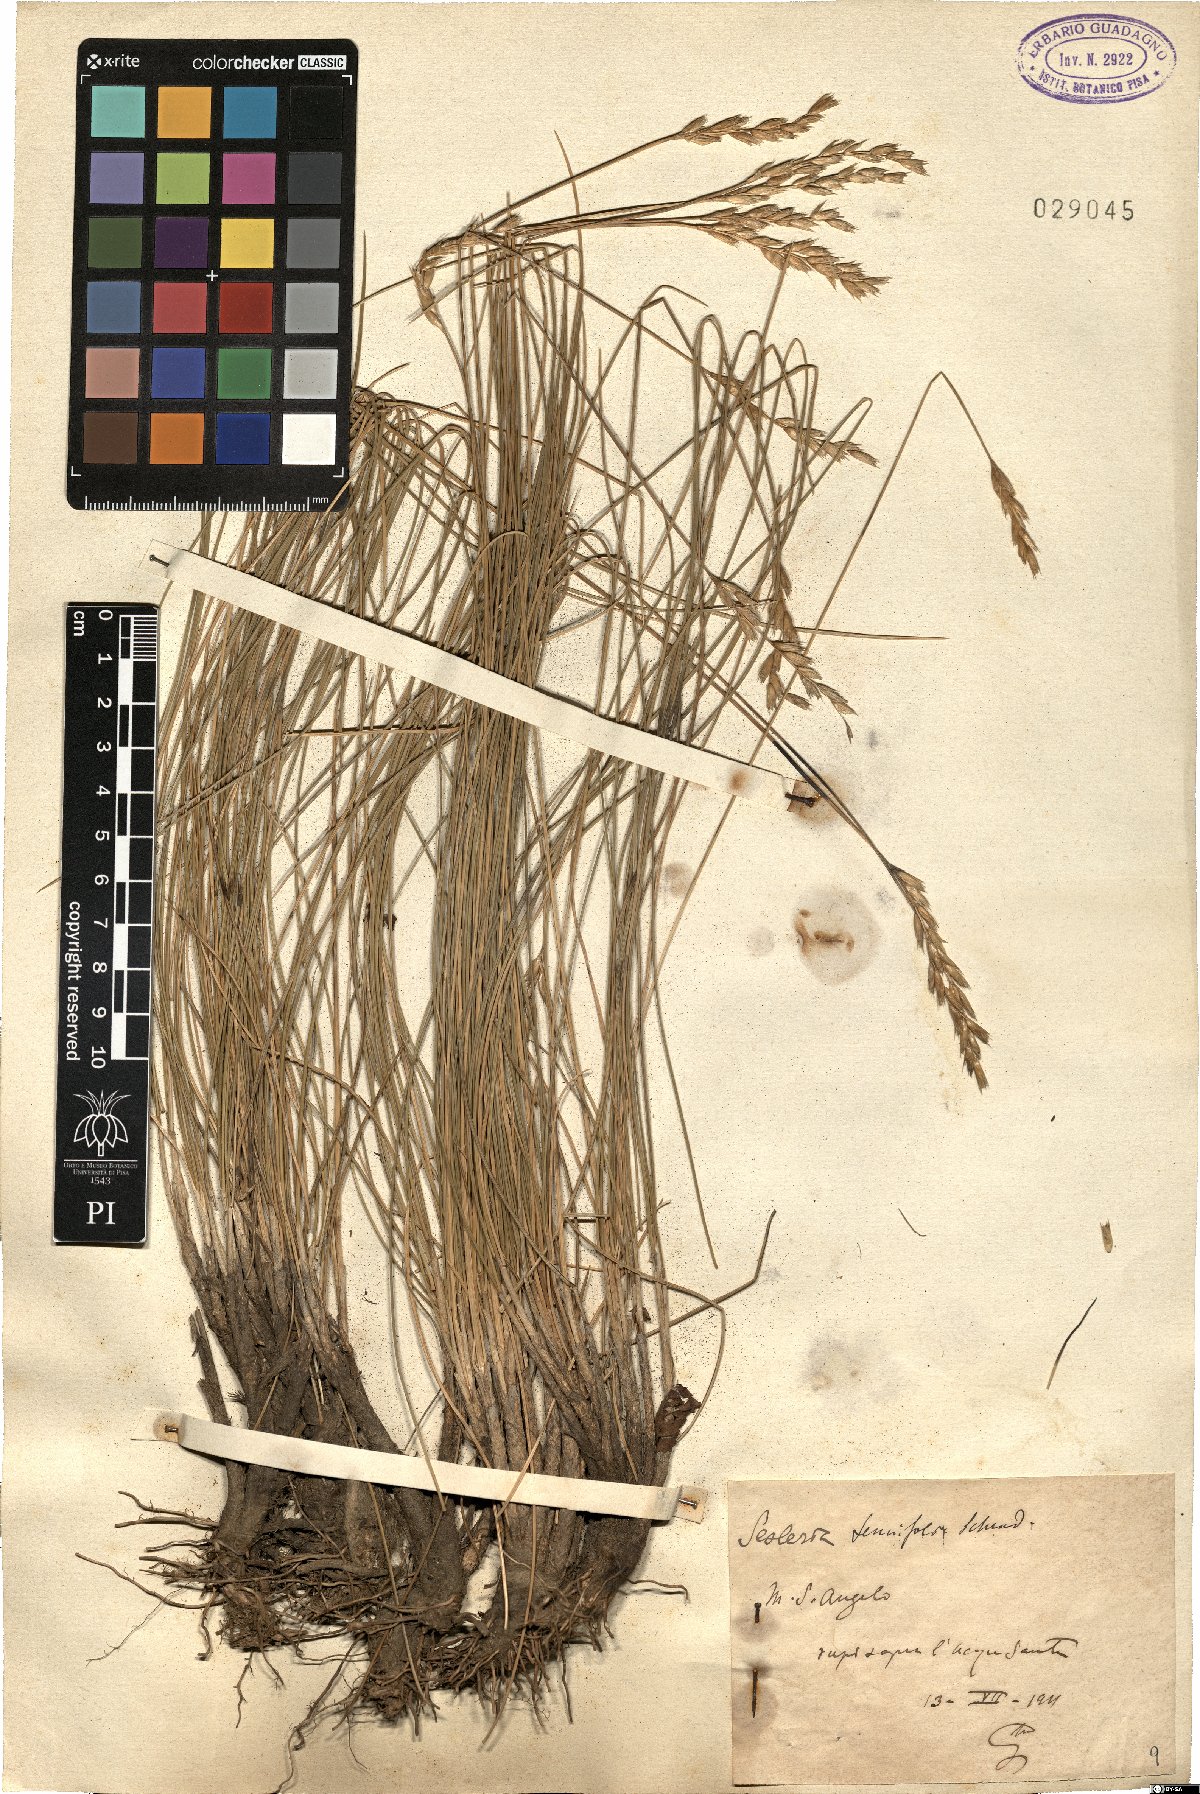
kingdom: Plantae
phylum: Tracheophyta
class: Liliopsida
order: Poales
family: Poaceae
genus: Sesleria
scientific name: Sesleria juncifolia
